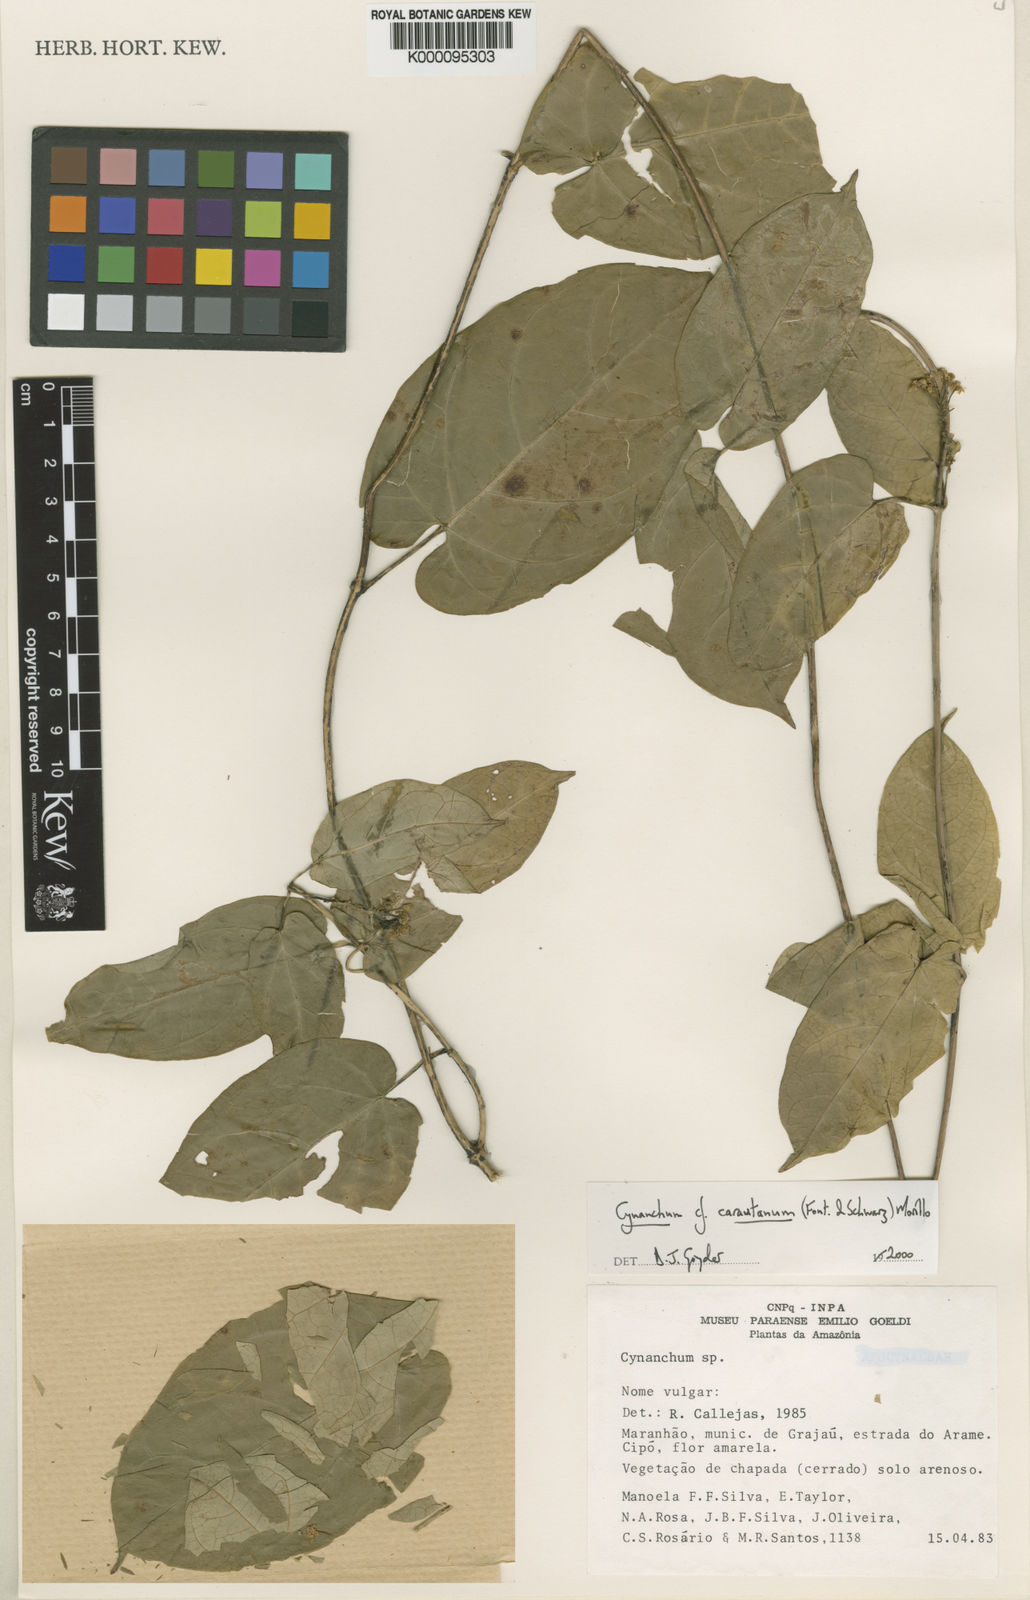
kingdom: Plantae
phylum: Tracheophyta
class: Magnoliopsida
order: Gentianales
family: Apocynaceae
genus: Cynanchum
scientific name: Cynanchum carautanum
